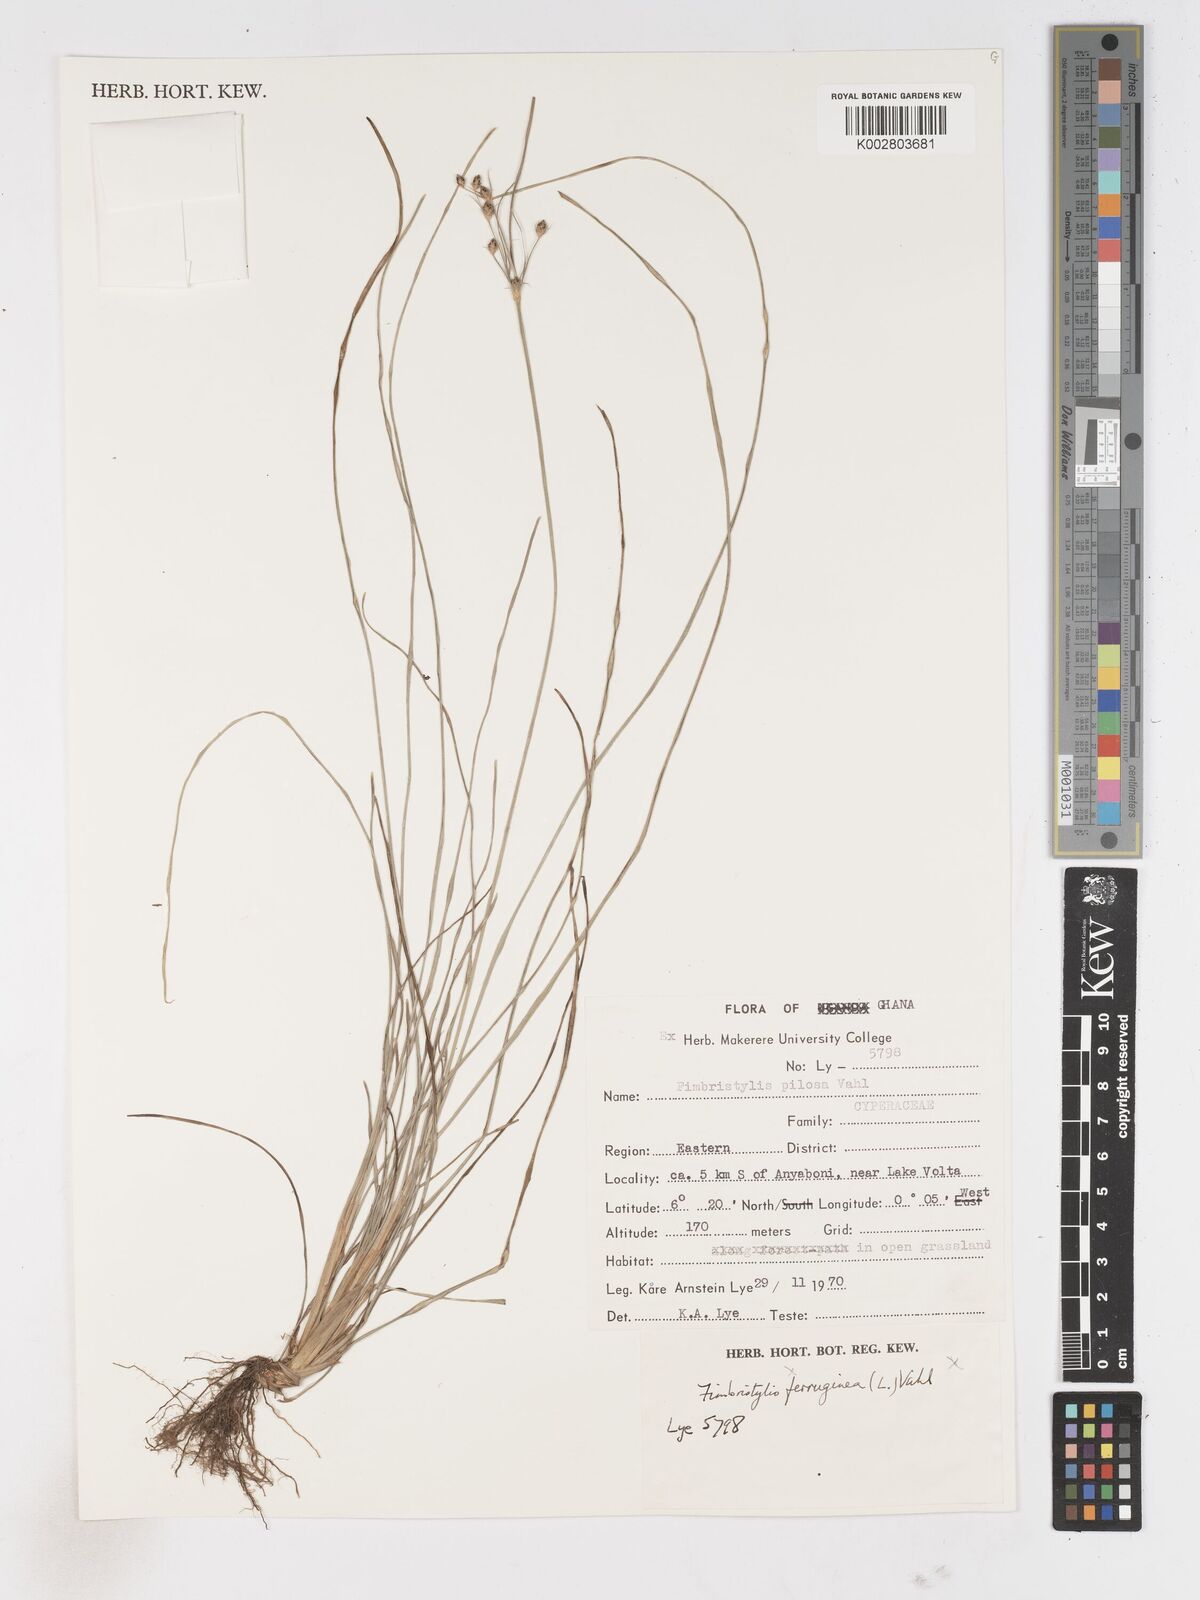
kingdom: Plantae
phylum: Tracheophyta
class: Liliopsida
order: Poales
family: Cyperaceae
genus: Fimbristylis
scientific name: Fimbristylis pilosa
